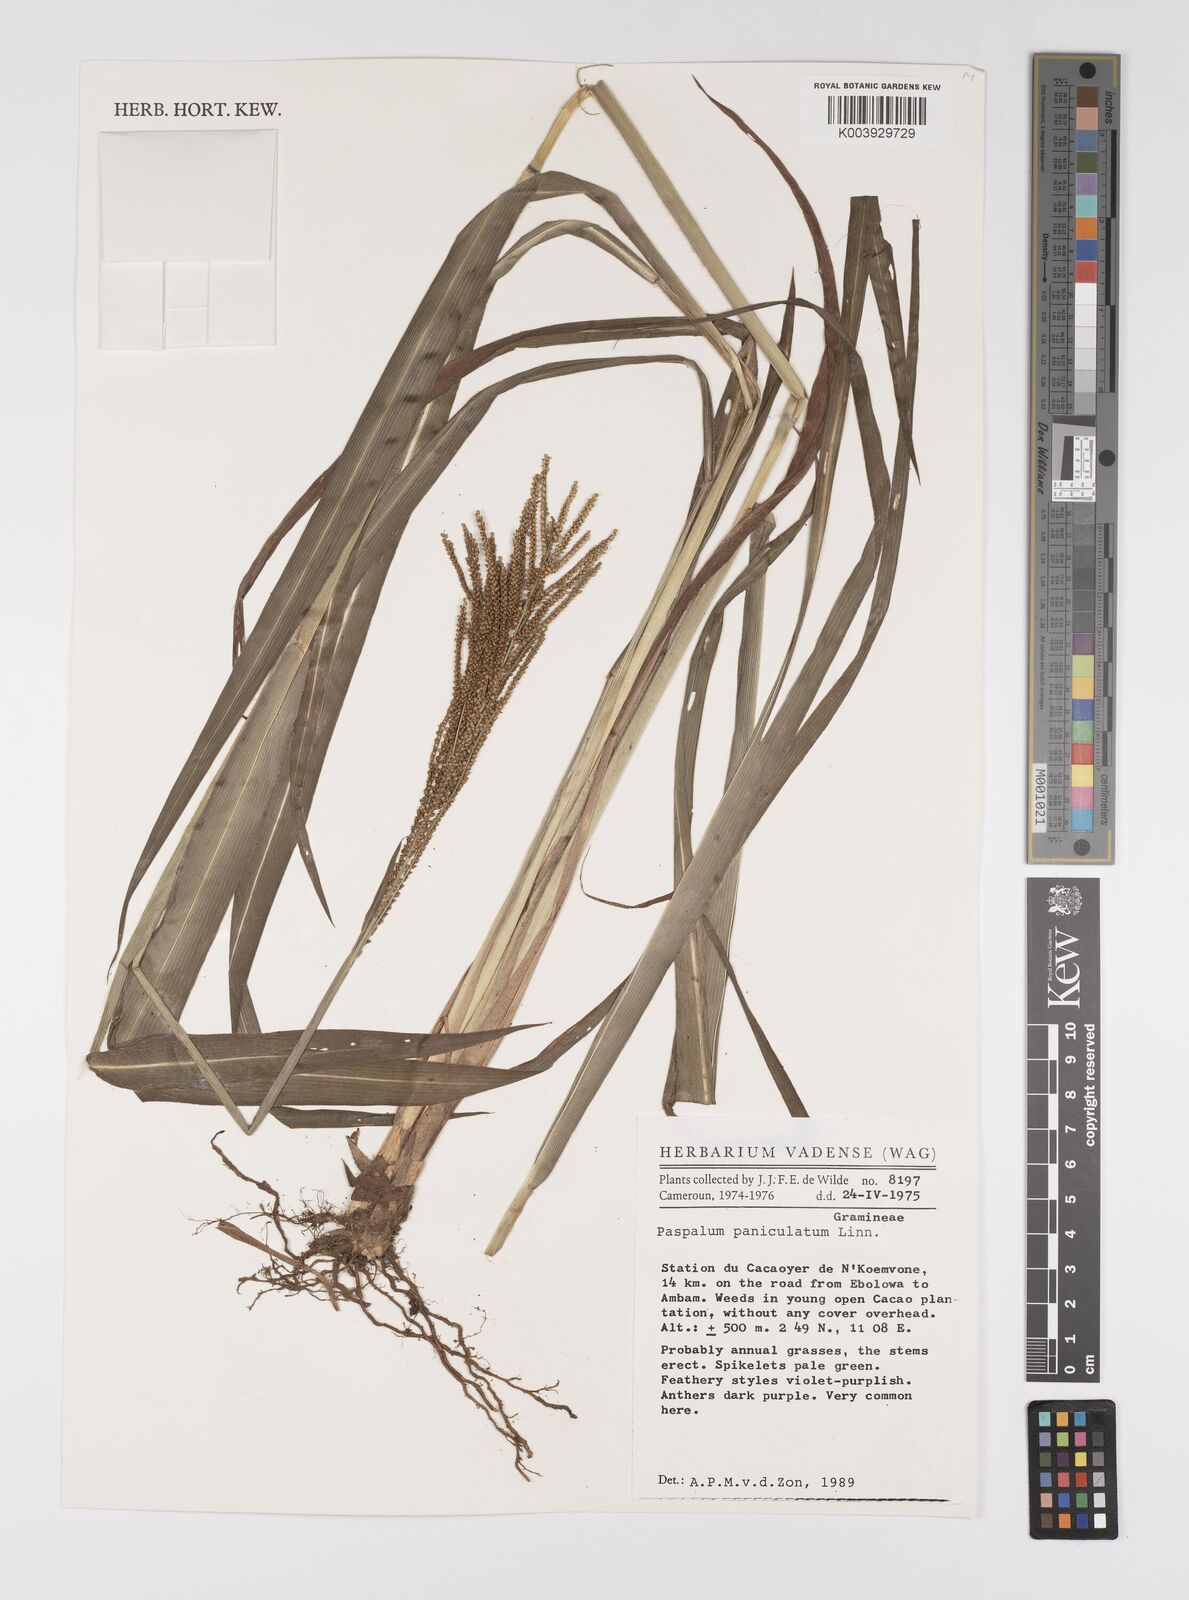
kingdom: Plantae
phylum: Tracheophyta
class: Liliopsida
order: Poales
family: Poaceae
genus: Paspalum
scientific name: Paspalum paniculatum
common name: Arrocillo
